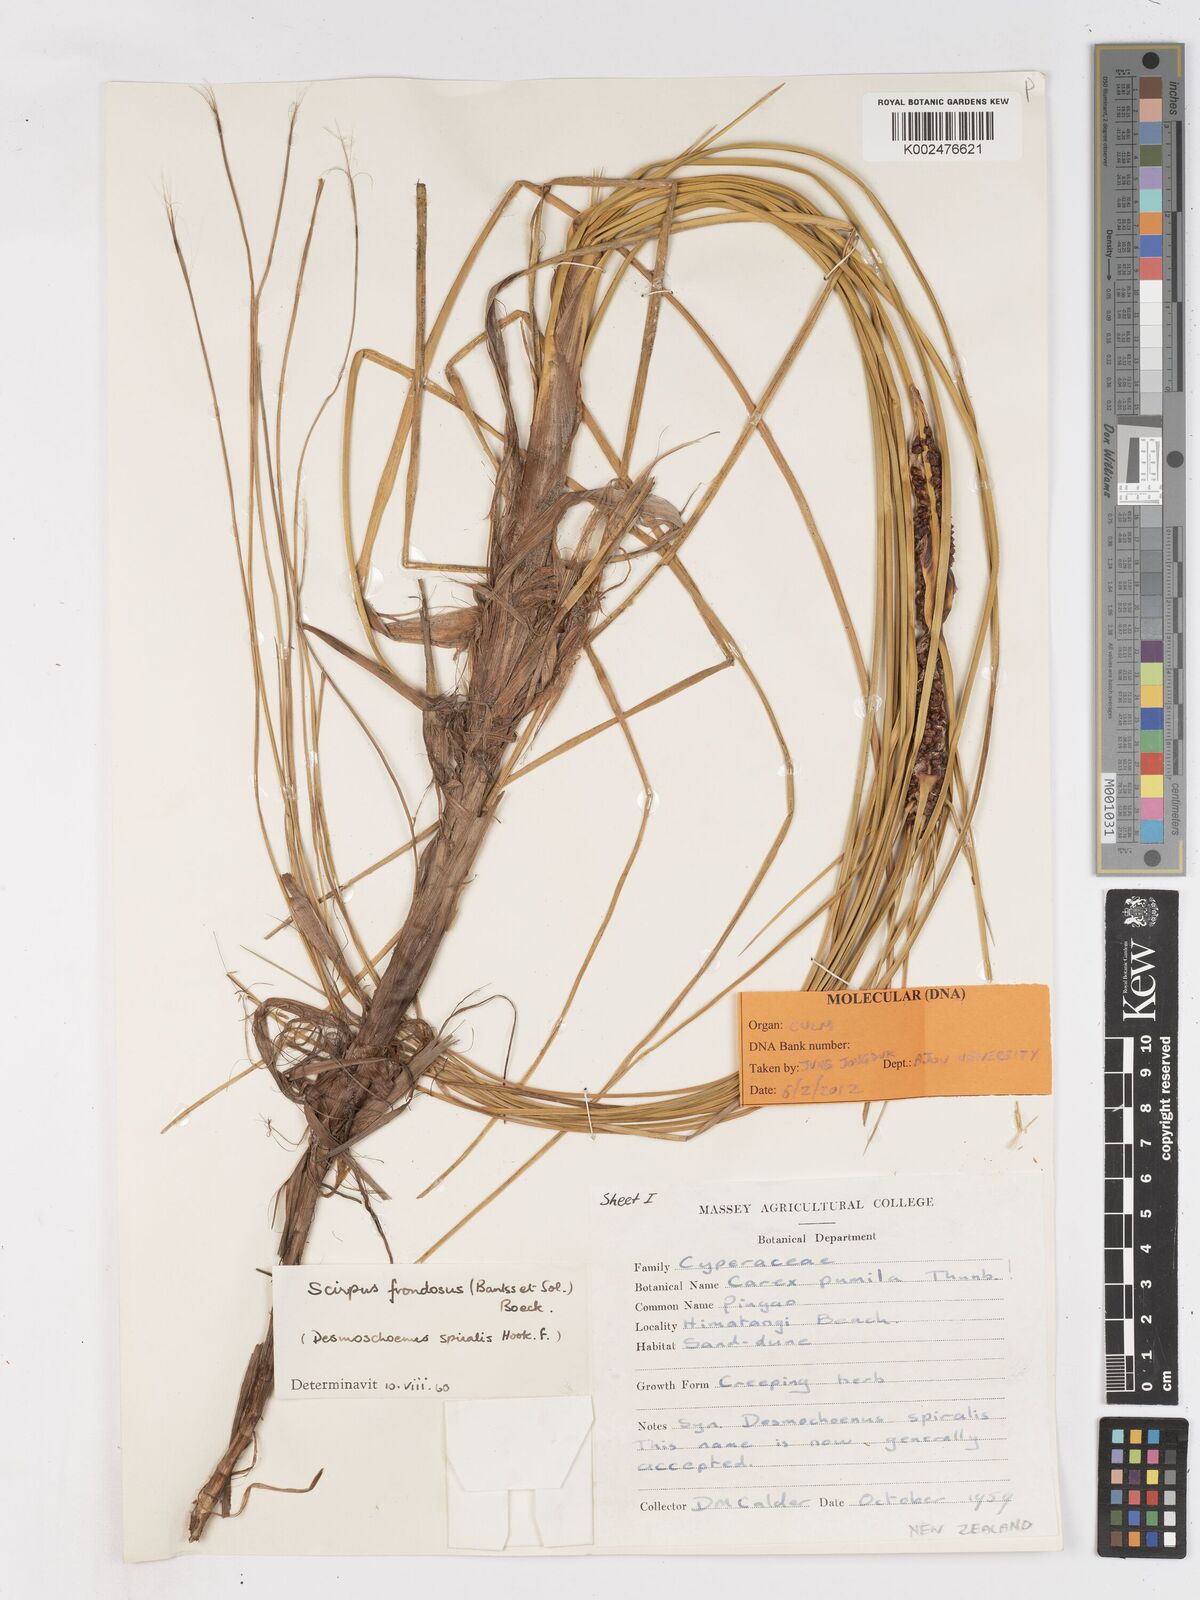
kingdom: Plantae
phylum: Tracheophyta
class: Liliopsida
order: Poales
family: Cyperaceae
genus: Ficinia
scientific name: Ficinia
